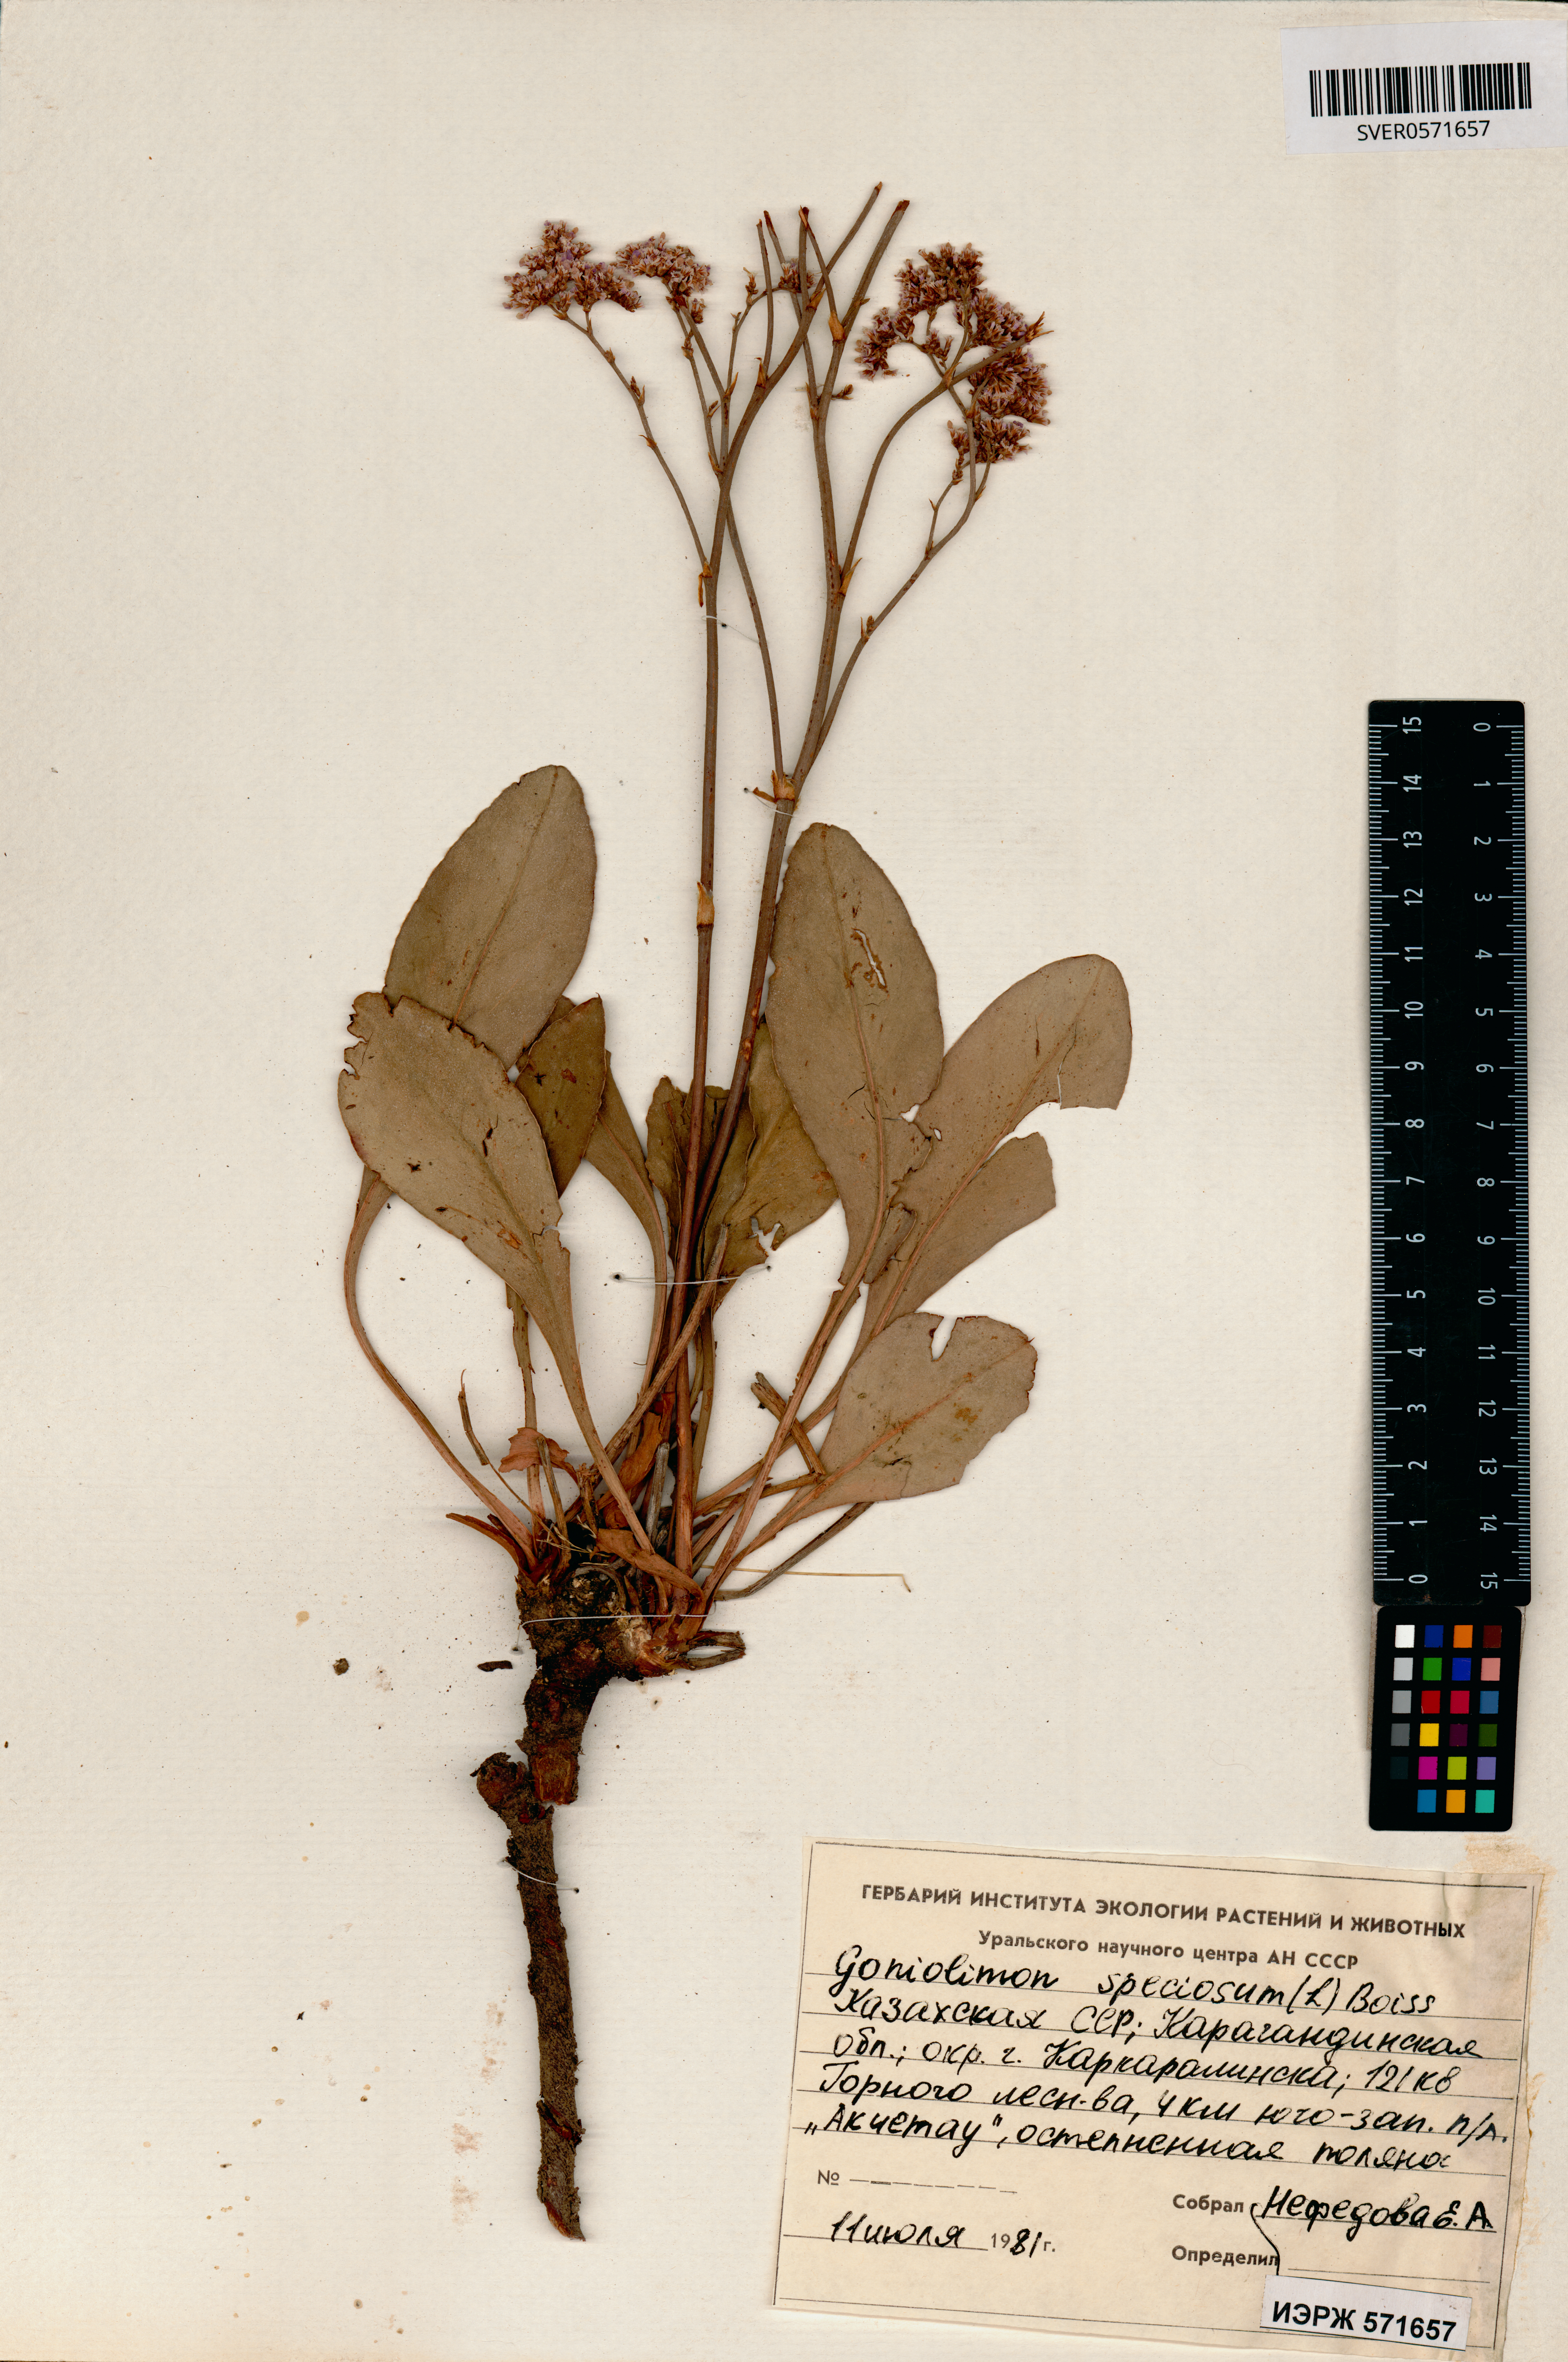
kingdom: Plantae
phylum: Tracheophyta
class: Magnoliopsida
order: Caryophyllales
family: Plumbaginaceae
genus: Goniolimon
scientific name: Goniolimon speciosum
